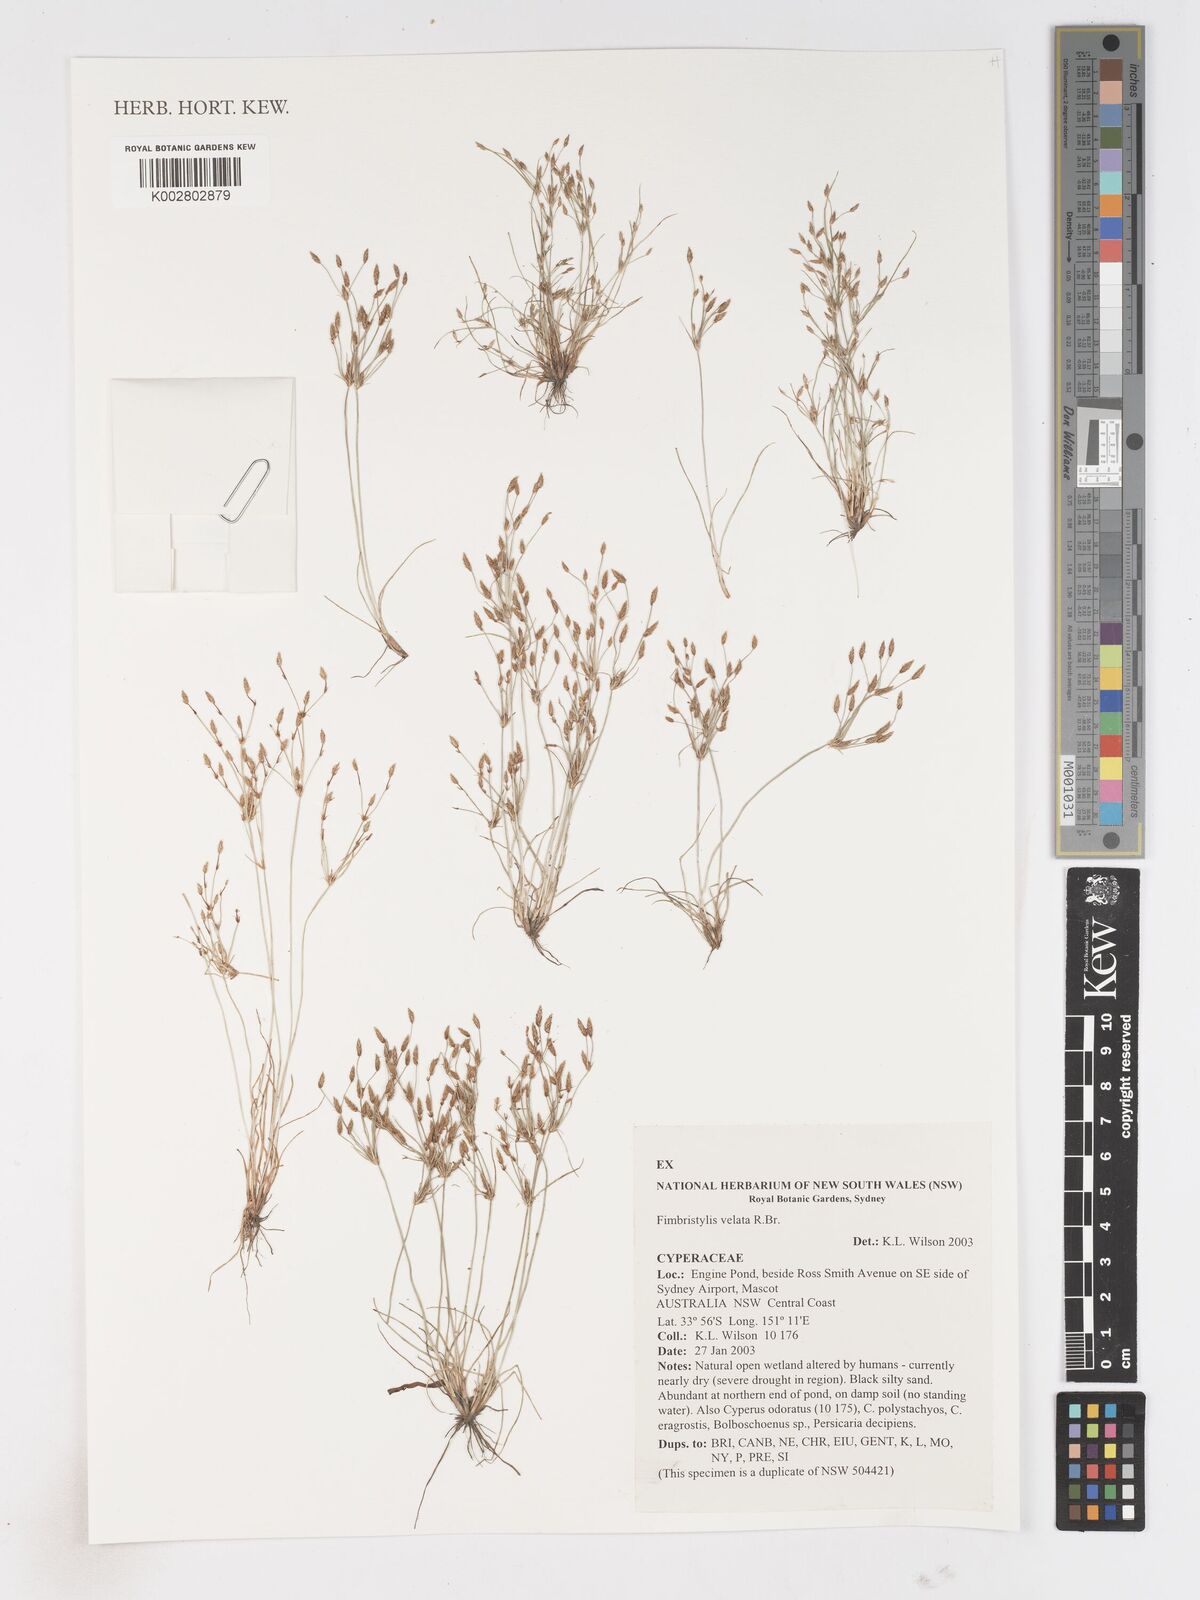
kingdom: Plantae
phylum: Tracheophyta
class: Liliopsida
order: Poales
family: Cyperaceae
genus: Fimbristylis
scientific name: Fimbristylis velata
